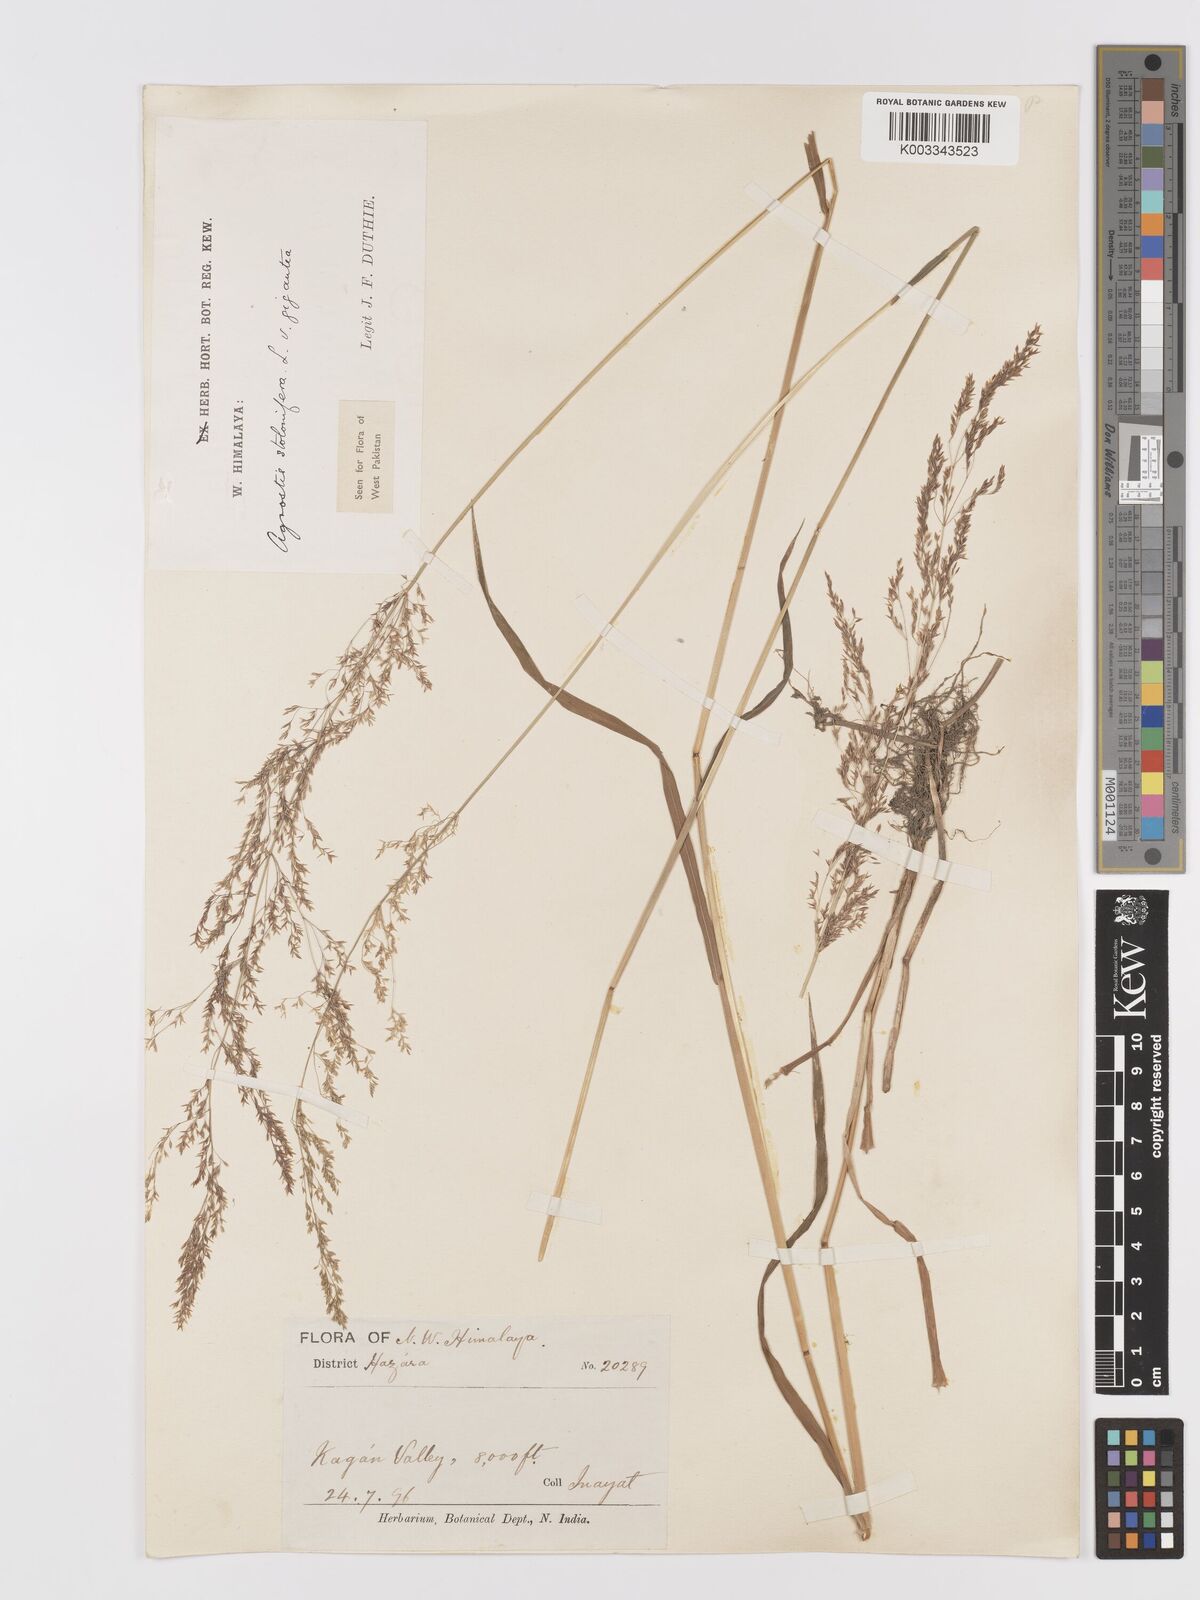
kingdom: Plantae
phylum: Tracheophyta
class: Liliopsida
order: Poales
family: Poaceae
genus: Agrostis
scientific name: Agrostis gigantea
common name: Black bent
